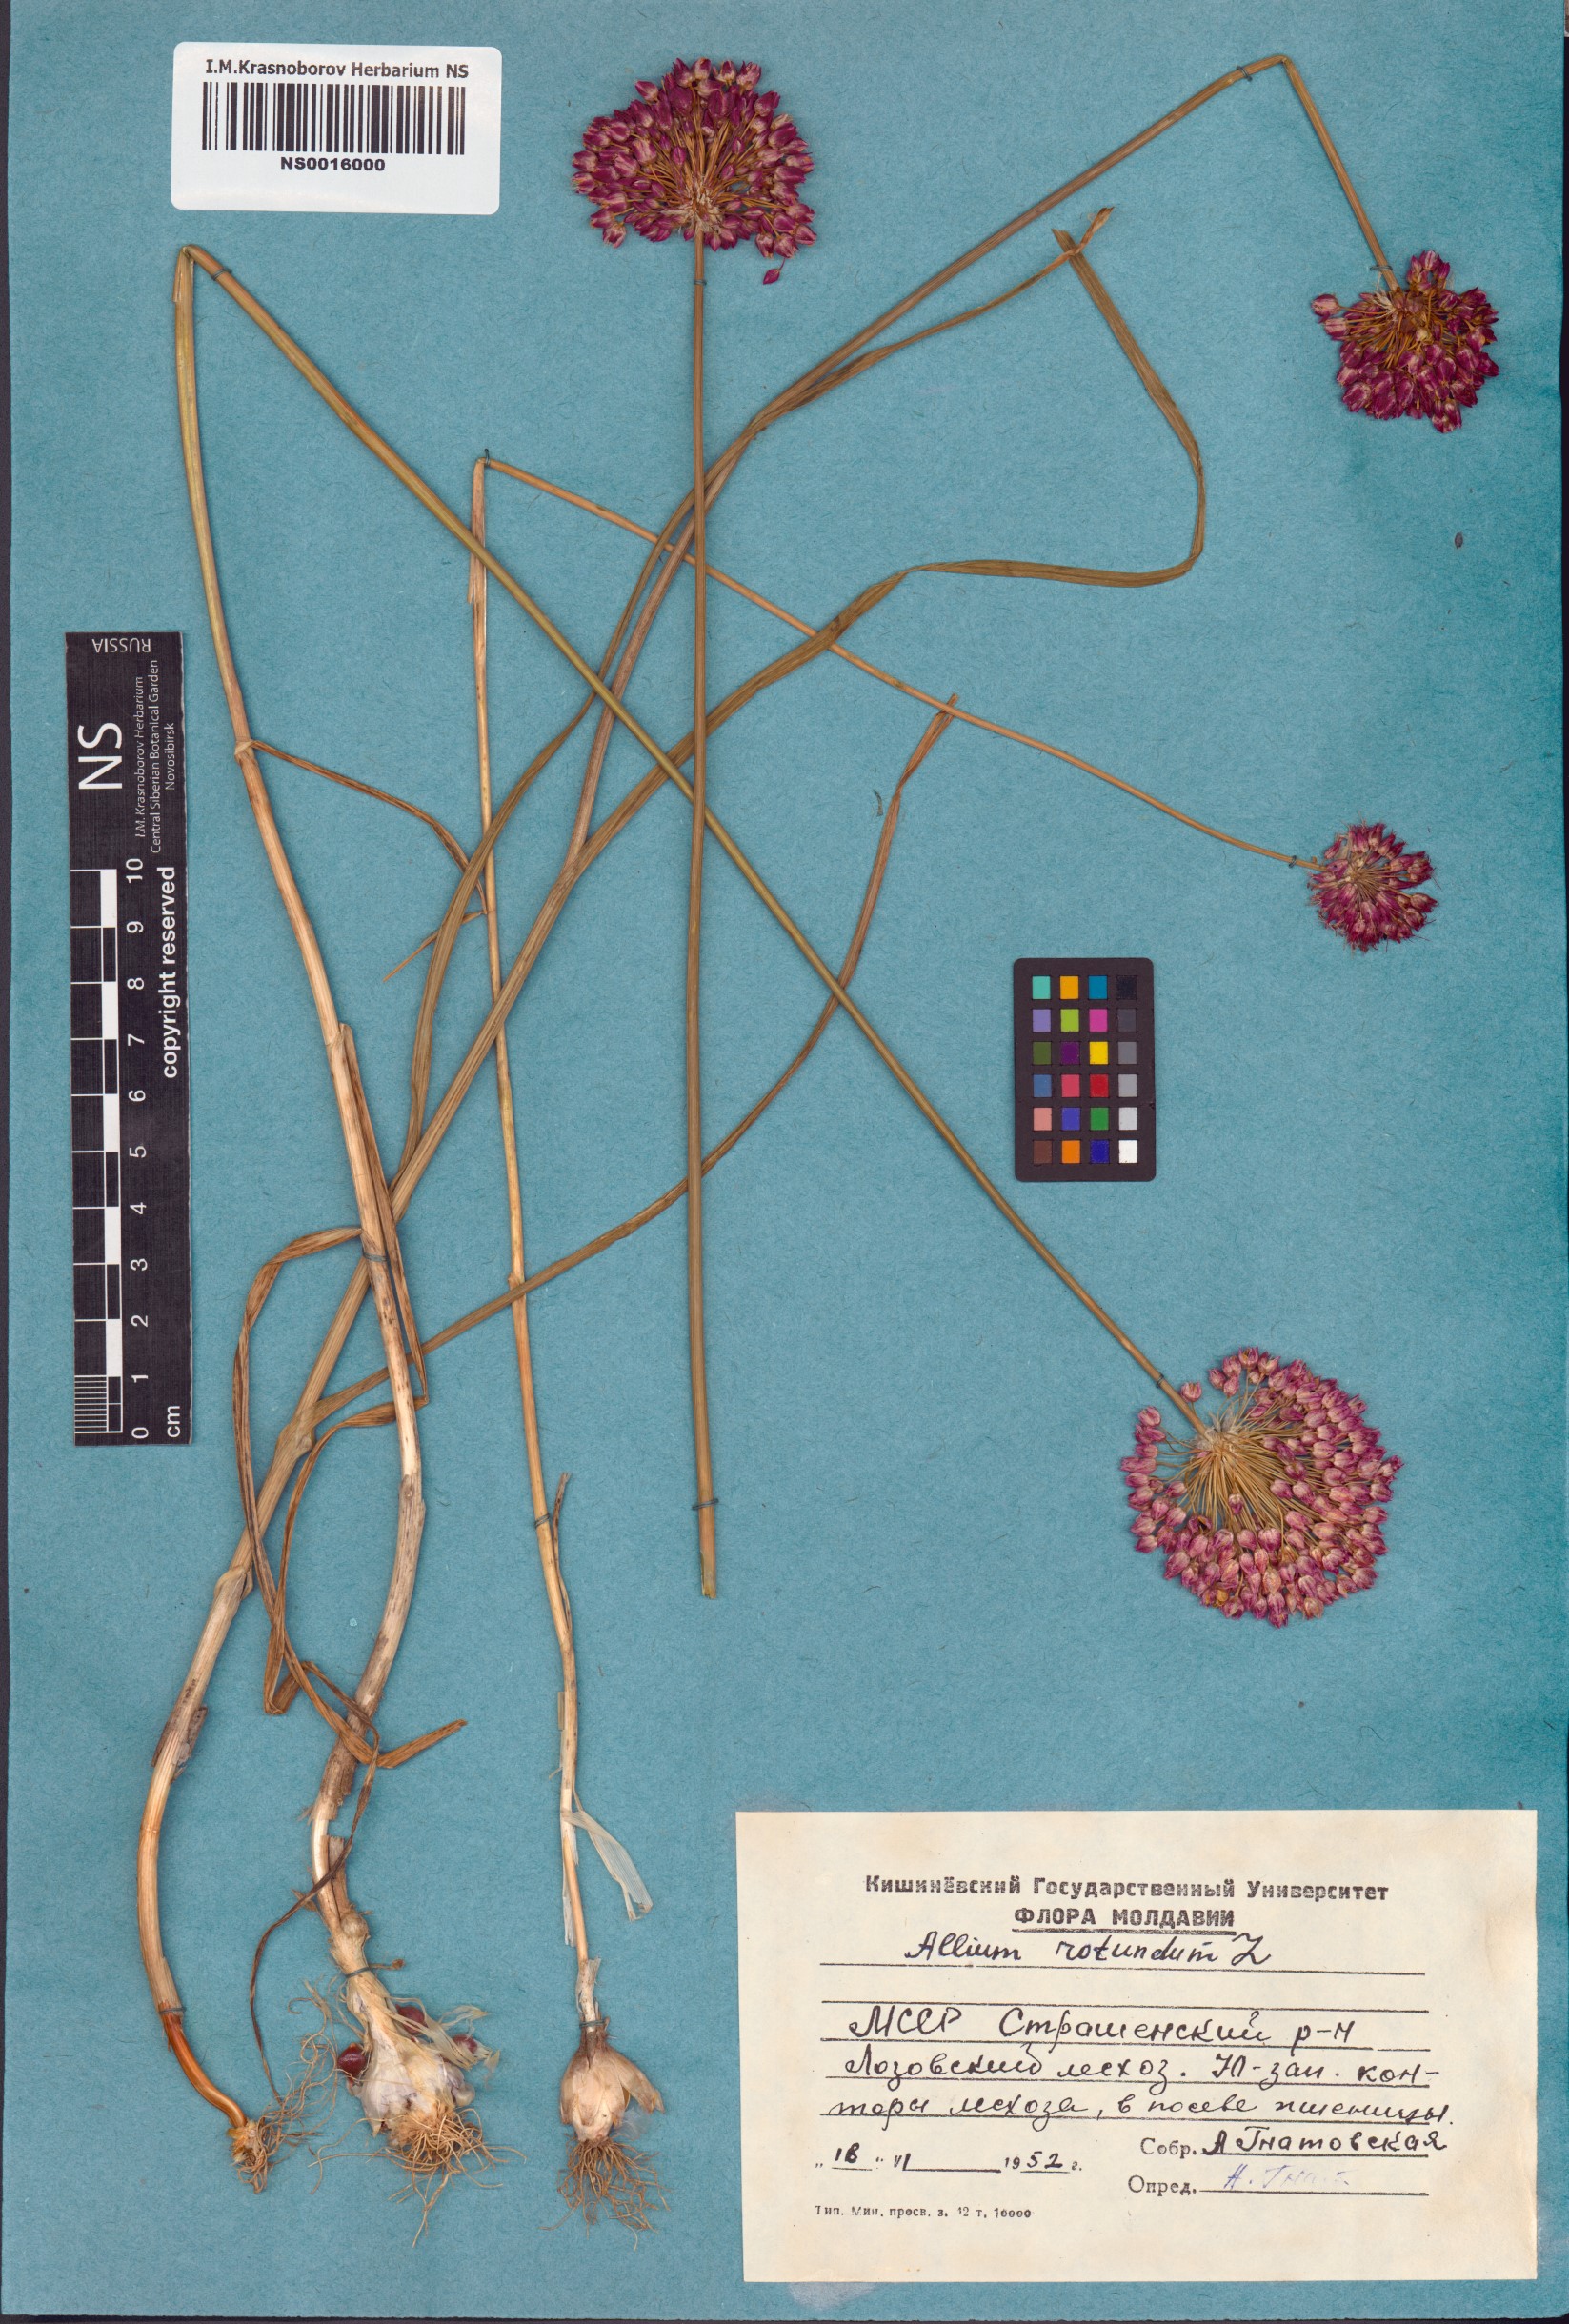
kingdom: Plantae
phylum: Tracheophyta
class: Liliopsida
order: Asparagales
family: Amaryllidaceae
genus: Allium
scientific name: Allium rotundum
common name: Sand leek
